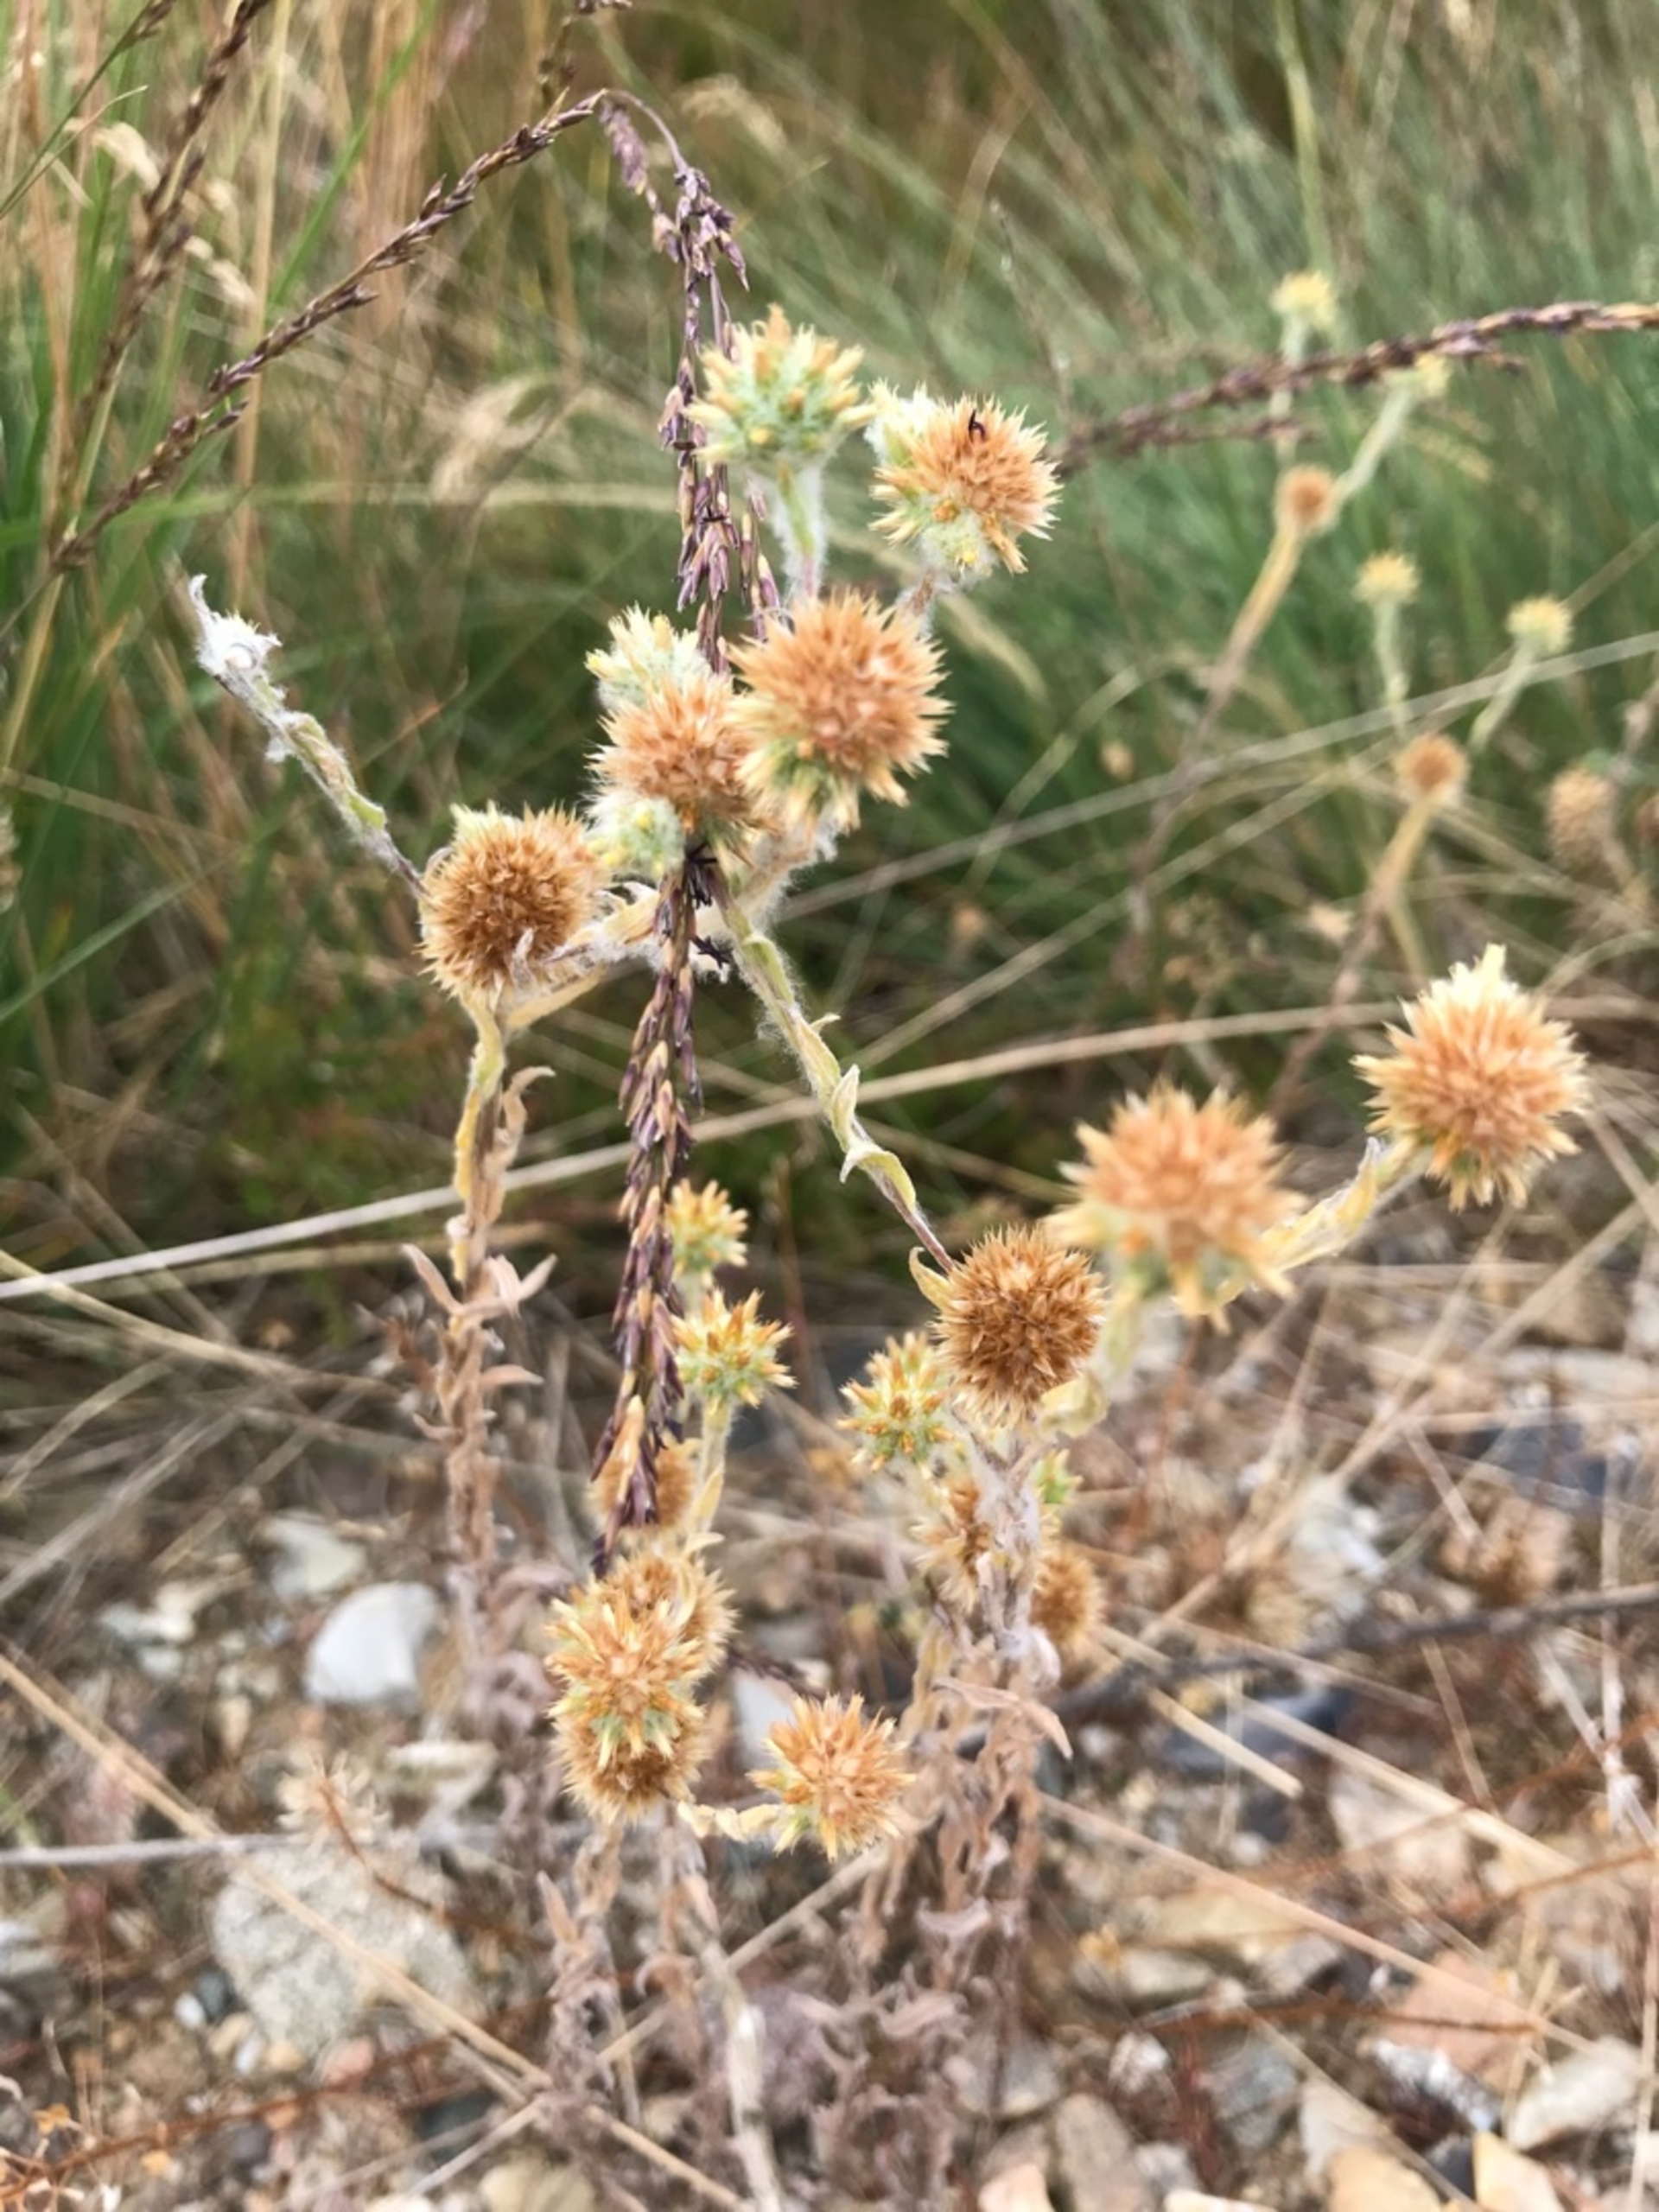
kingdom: Plantae
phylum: Tracheophyta
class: Magnoliopsida
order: Asterales
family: Asteraceae
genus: Filago
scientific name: Filago germanica
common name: Kugle-museurt
